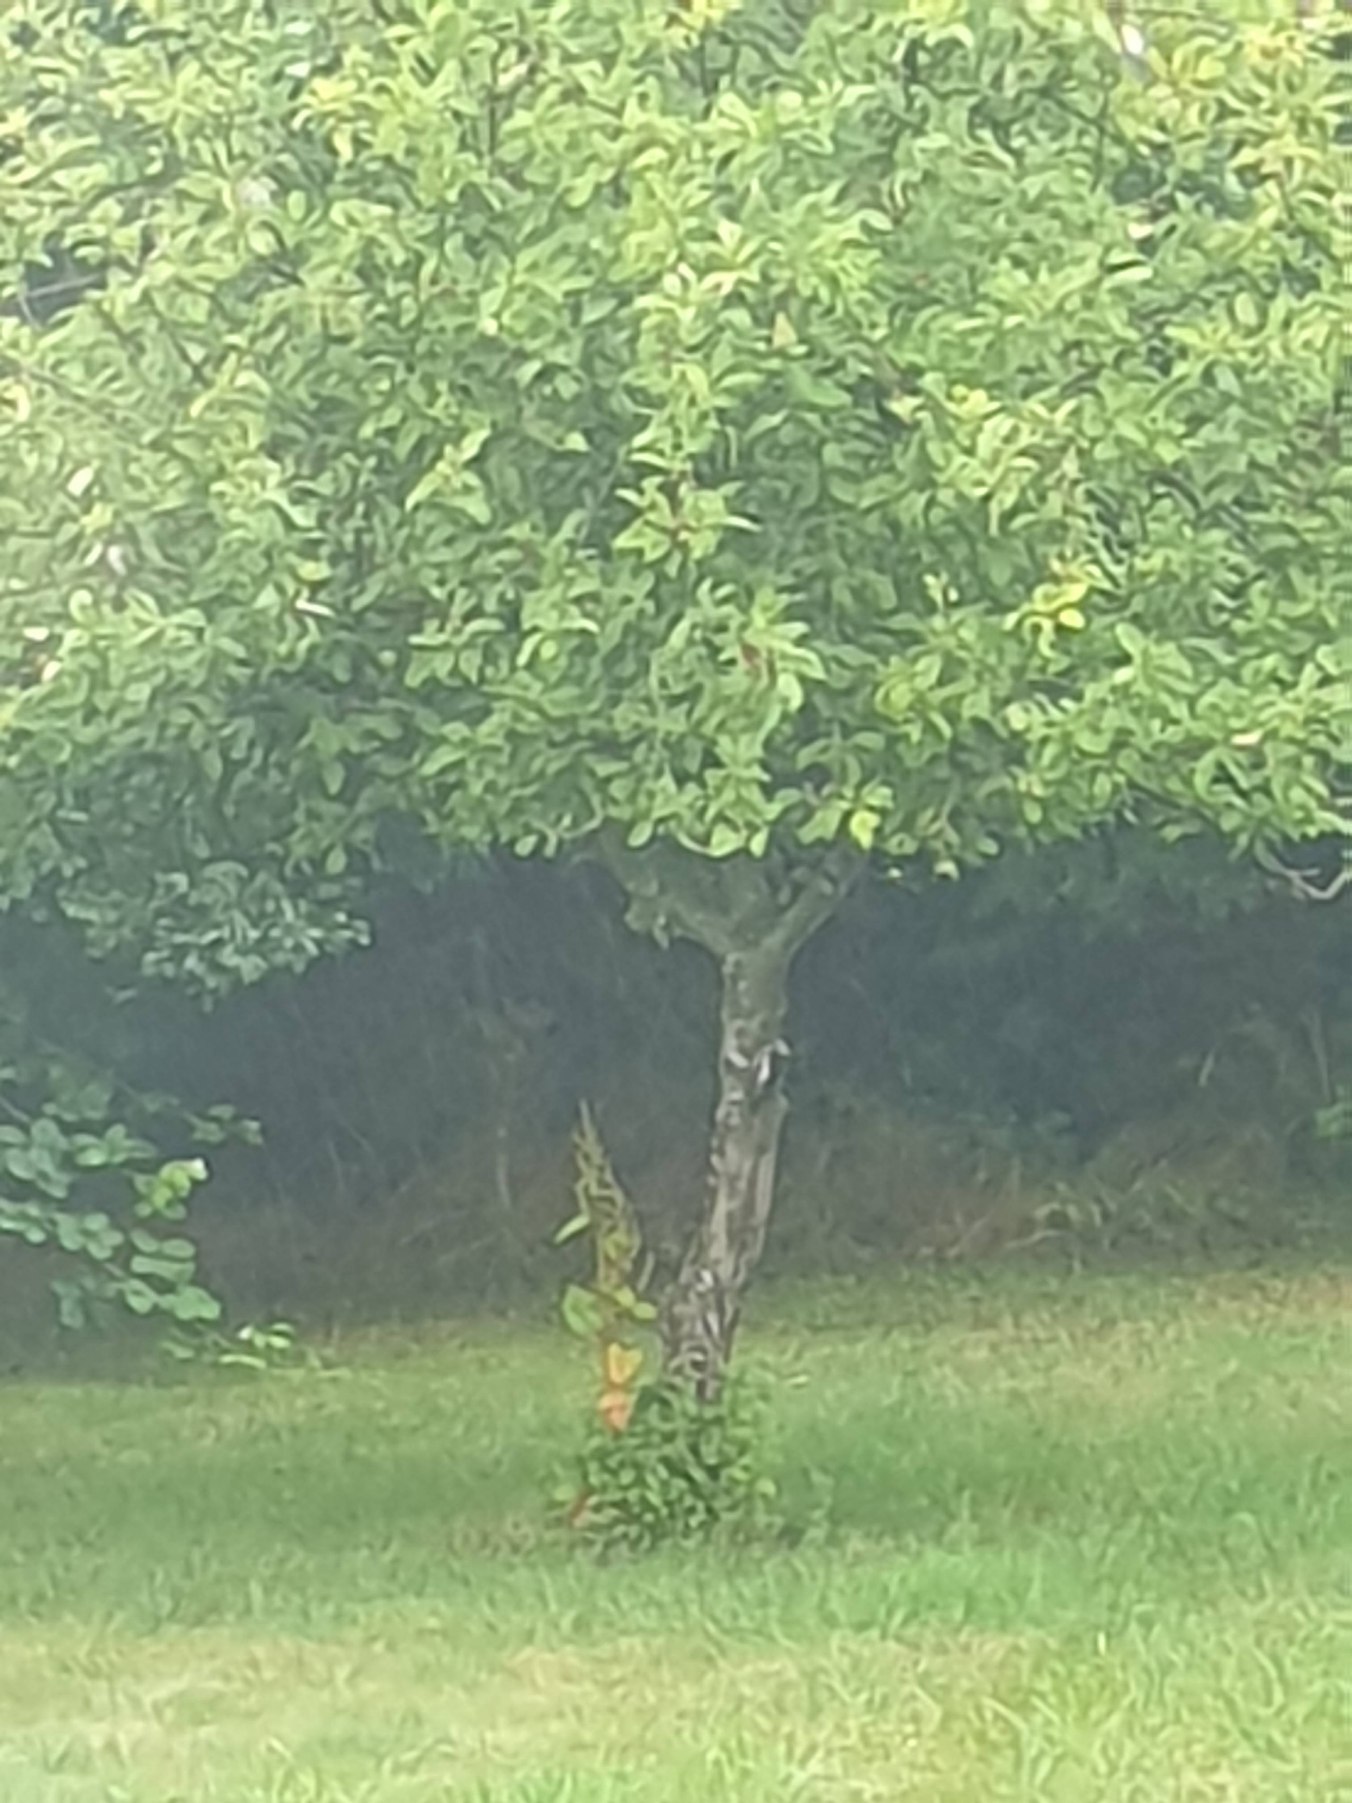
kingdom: Animalia
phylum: Chordata
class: Aves
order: Piciformes
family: Picidae
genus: Dendrocopos
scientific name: Dendrocopos major
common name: Stor flagspætte
